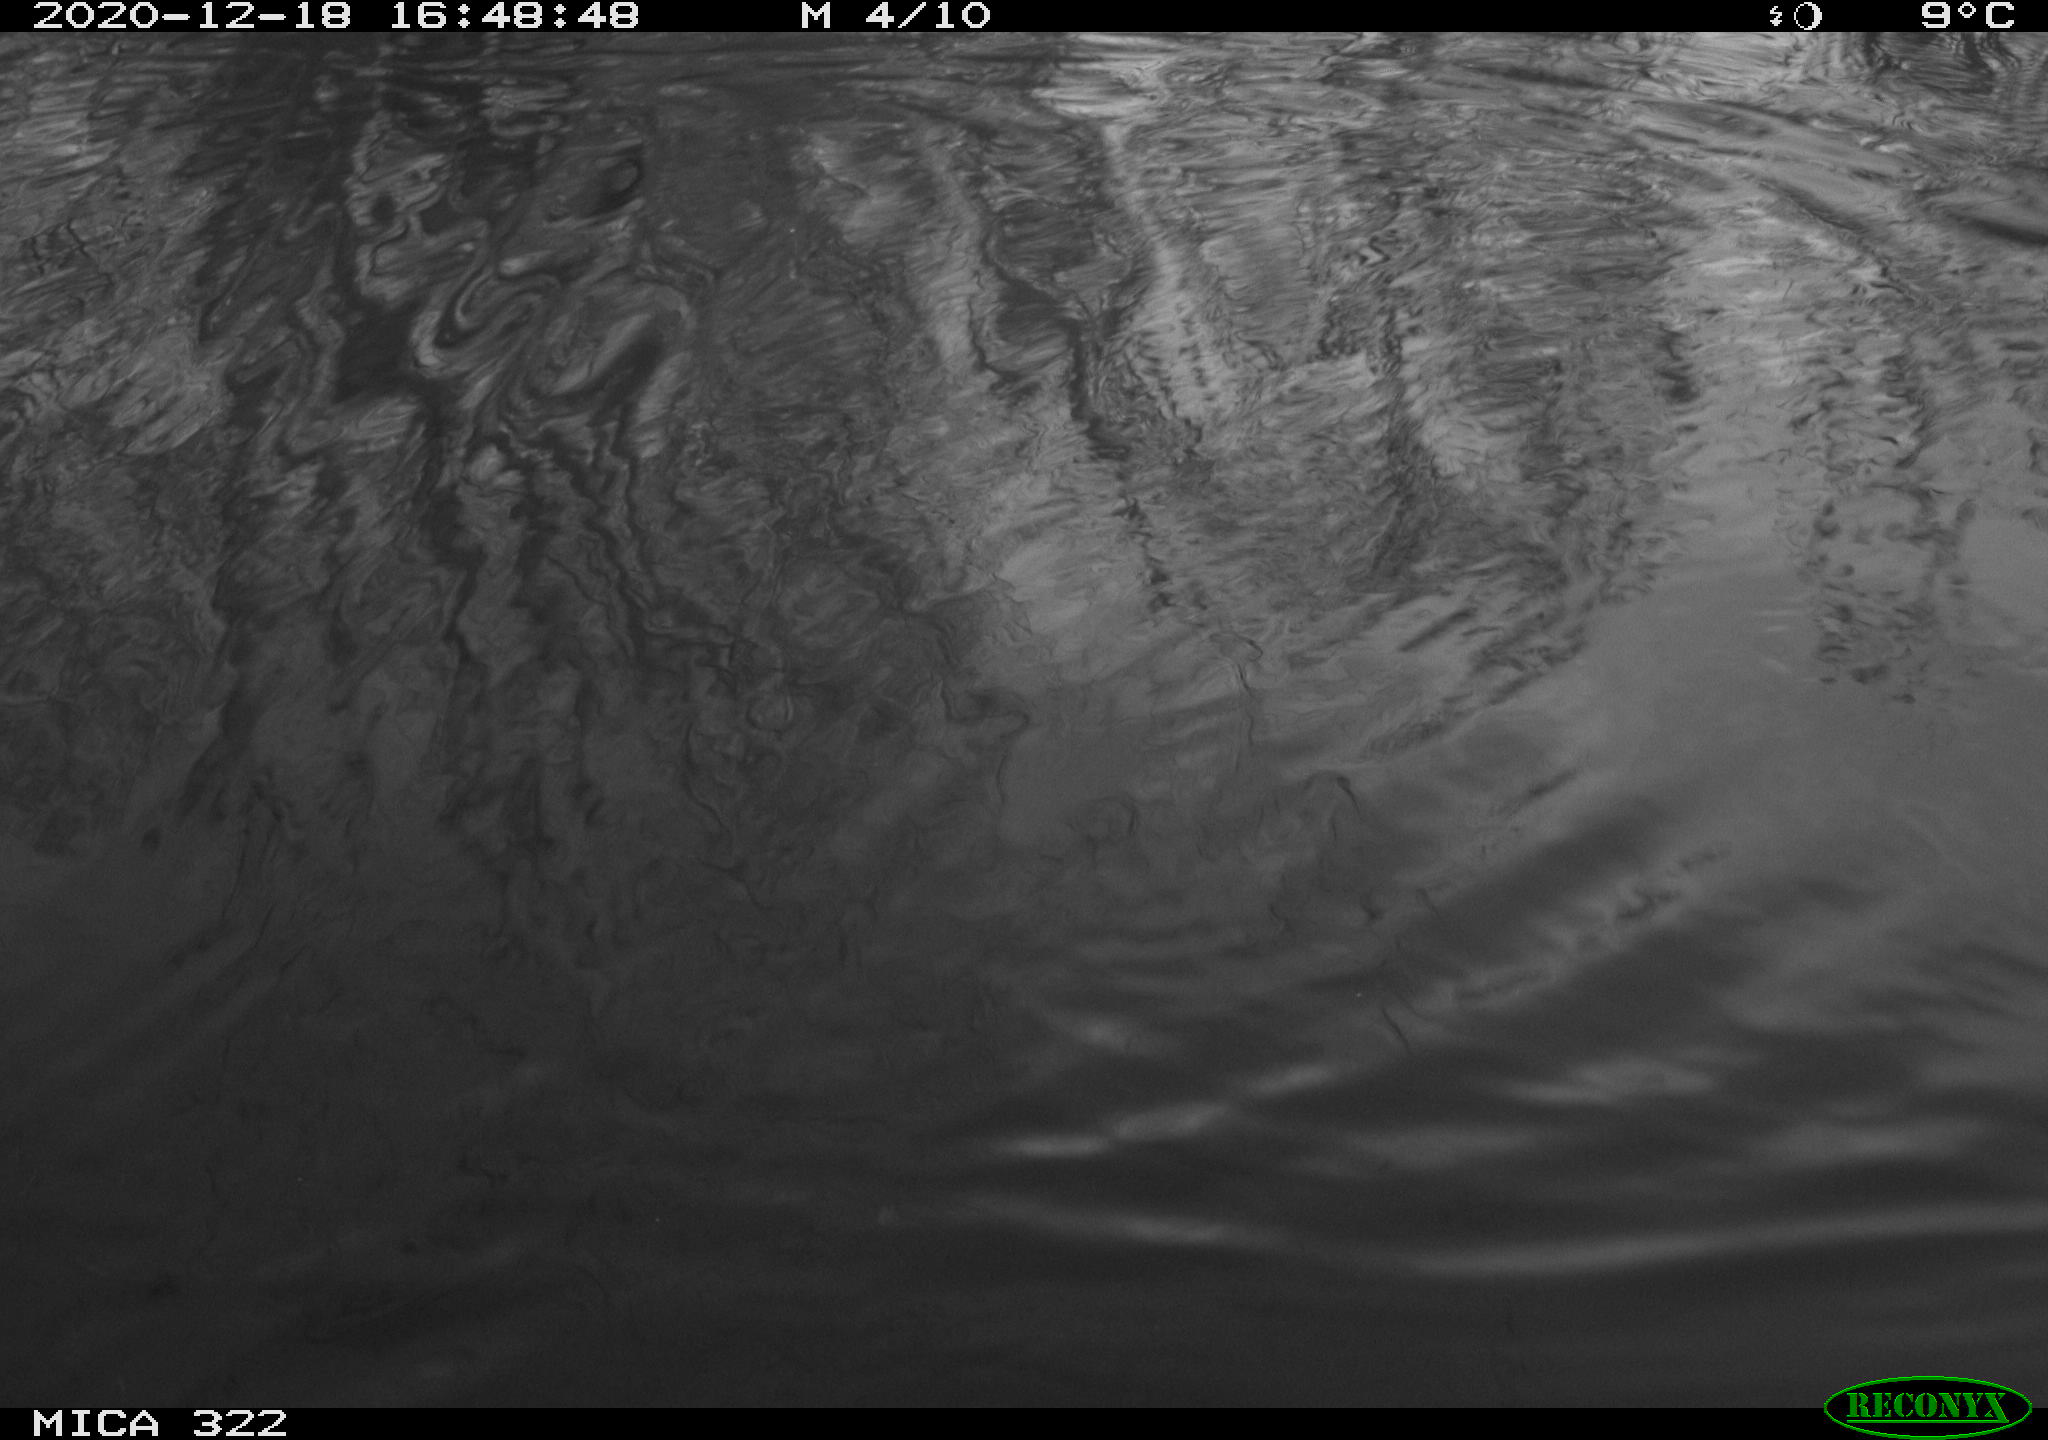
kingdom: Animalia
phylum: Chordata
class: Aves
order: Gruiformes
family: Rallidae
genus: Gallinula
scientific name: Gallinula chloropus
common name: Common moorhen
